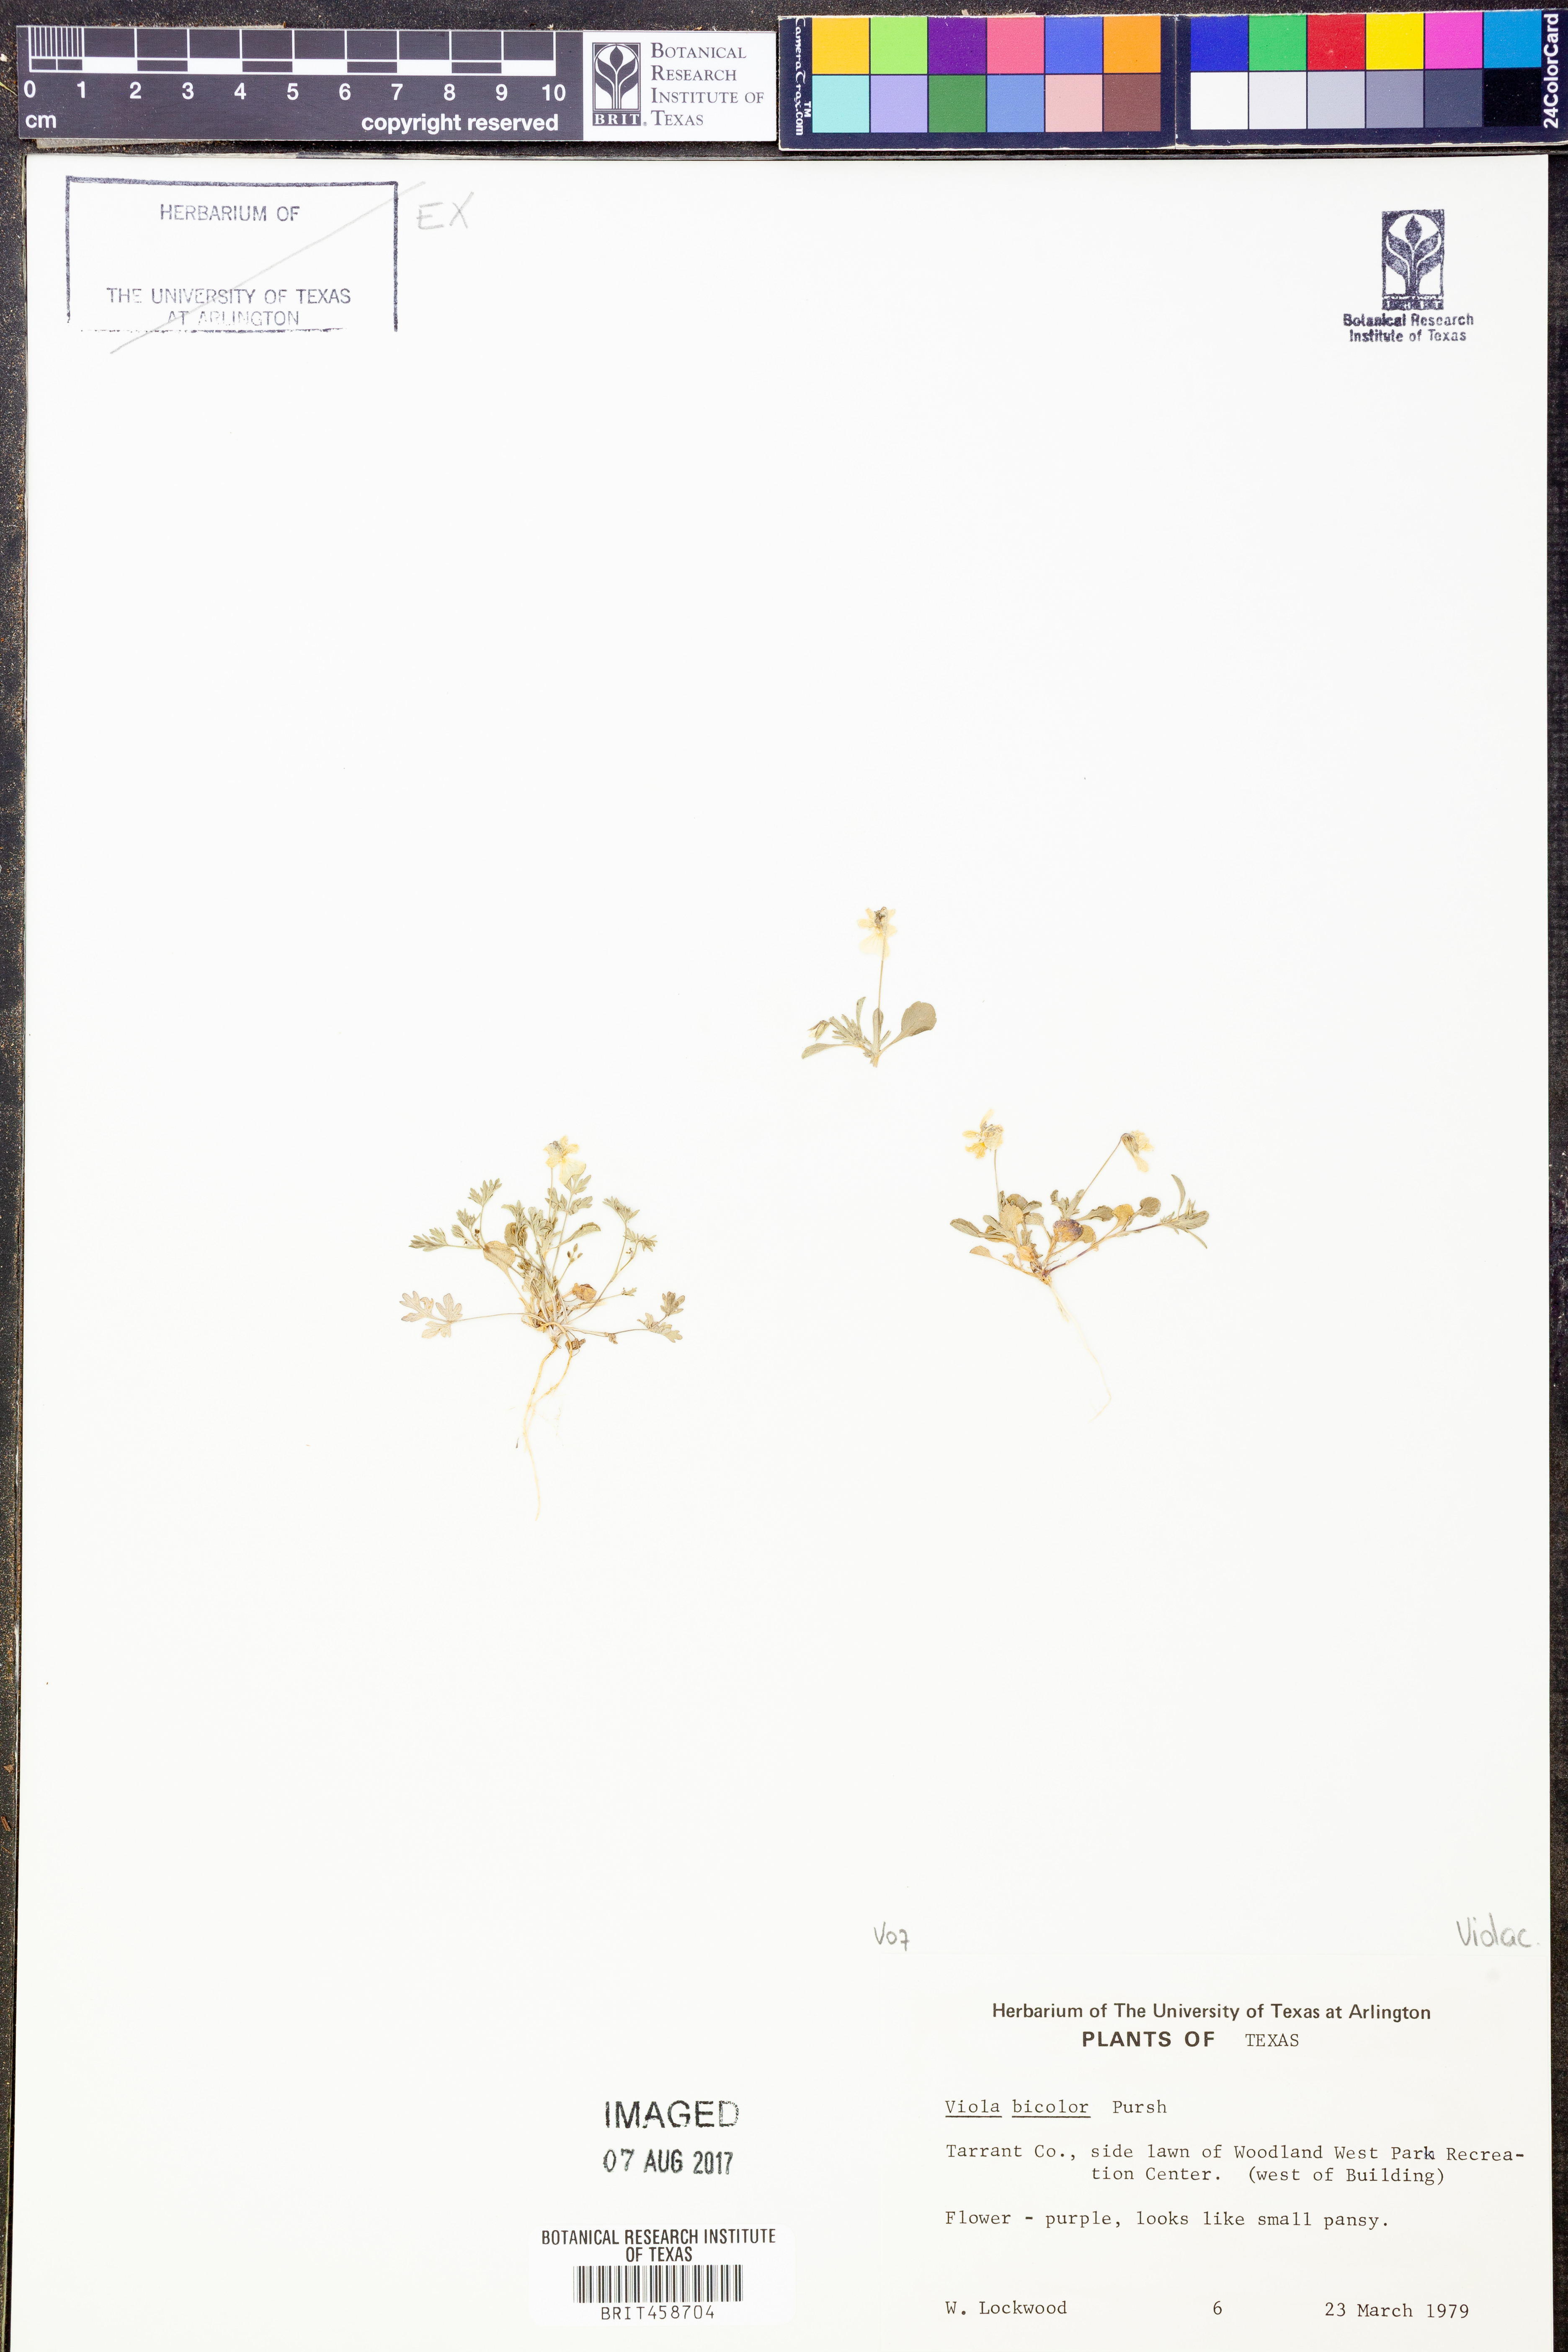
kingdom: Plantae
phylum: Tracheophyta
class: Magnoliopsida
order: Malpighiales
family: Violaceae
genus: Viola
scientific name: Viola rafinesquei
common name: American field pansy
